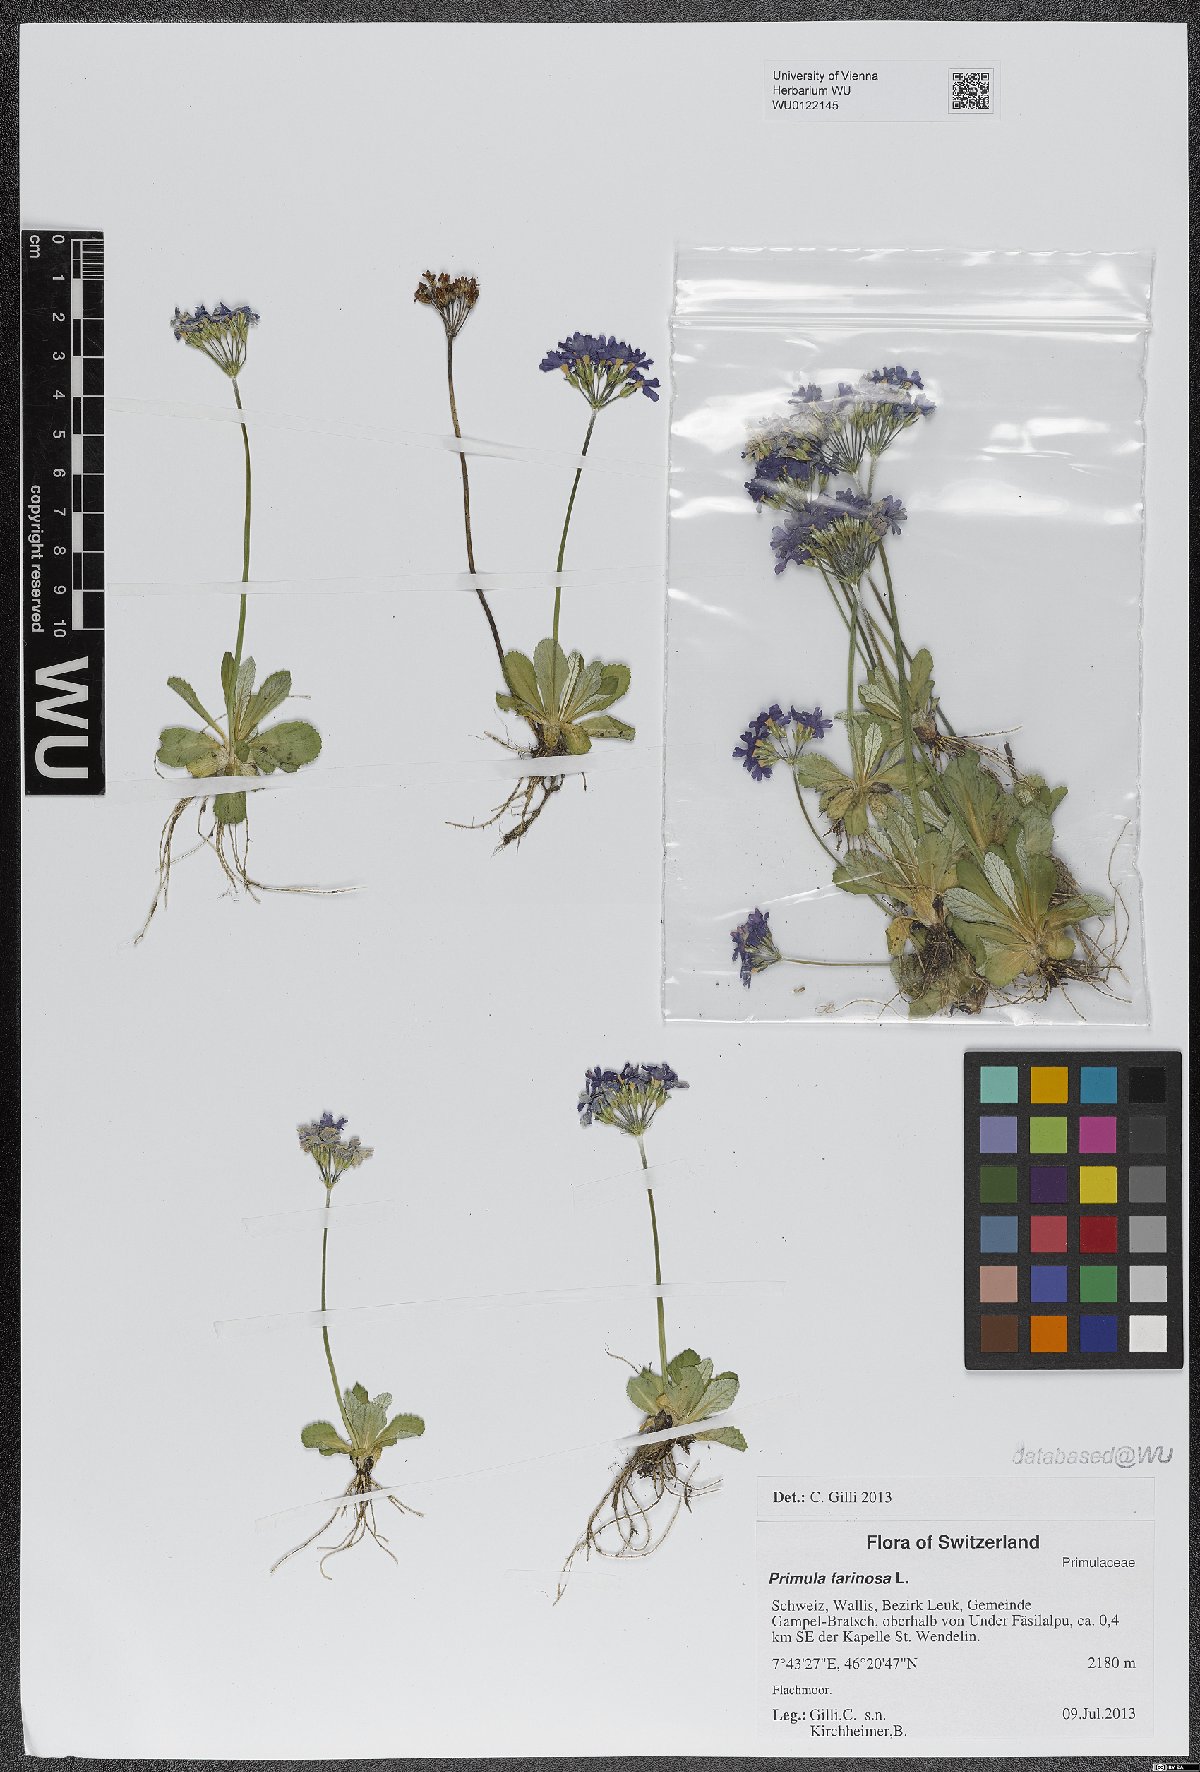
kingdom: Plantae
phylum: Tracheophyta
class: Magnoliopsida
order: Ericales
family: Primulaceae
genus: Primula
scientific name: Primula farinosa
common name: Bird's-eye primrose
